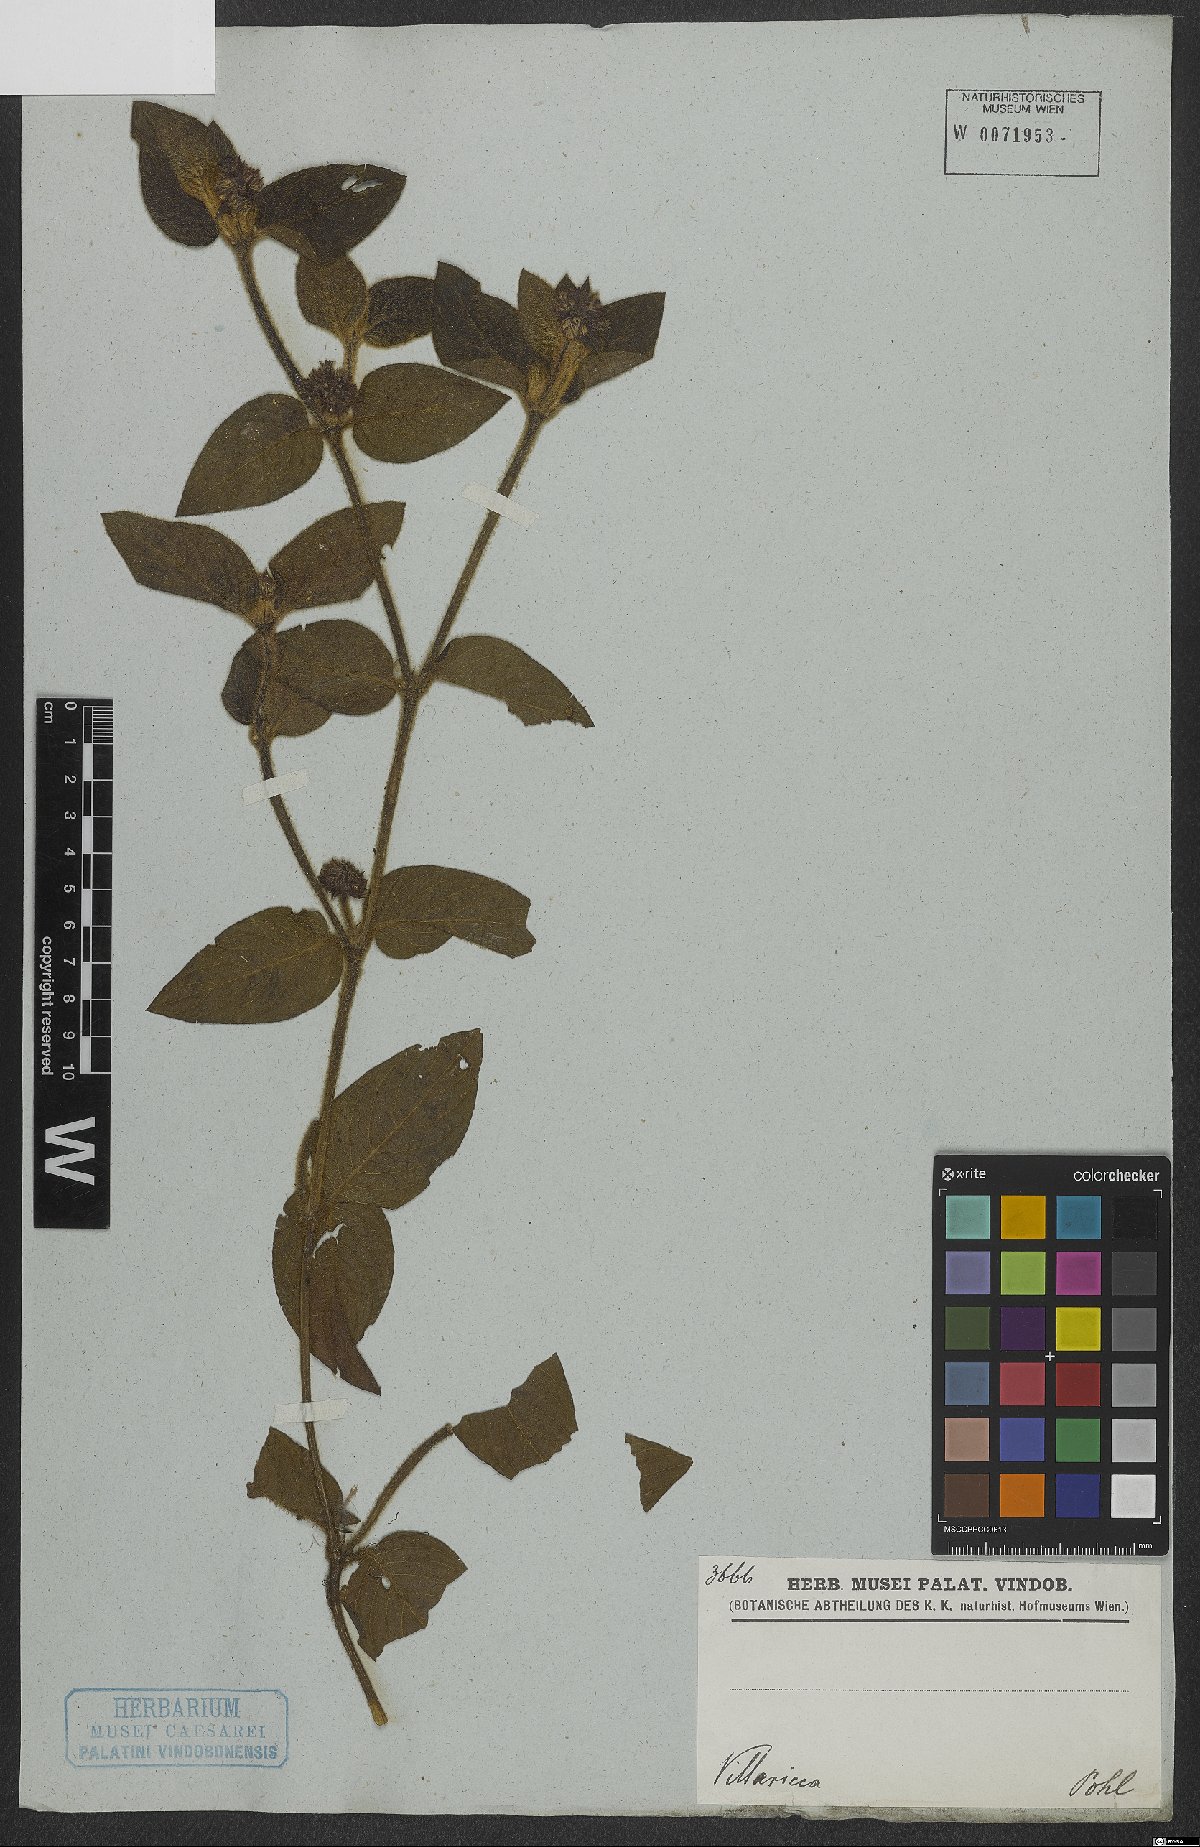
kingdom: Plantae
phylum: Tracheophyta
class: Magnoliopsida
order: Gentianales
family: Rubiaceae
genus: Coccocypselum
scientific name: Coccocypselum
